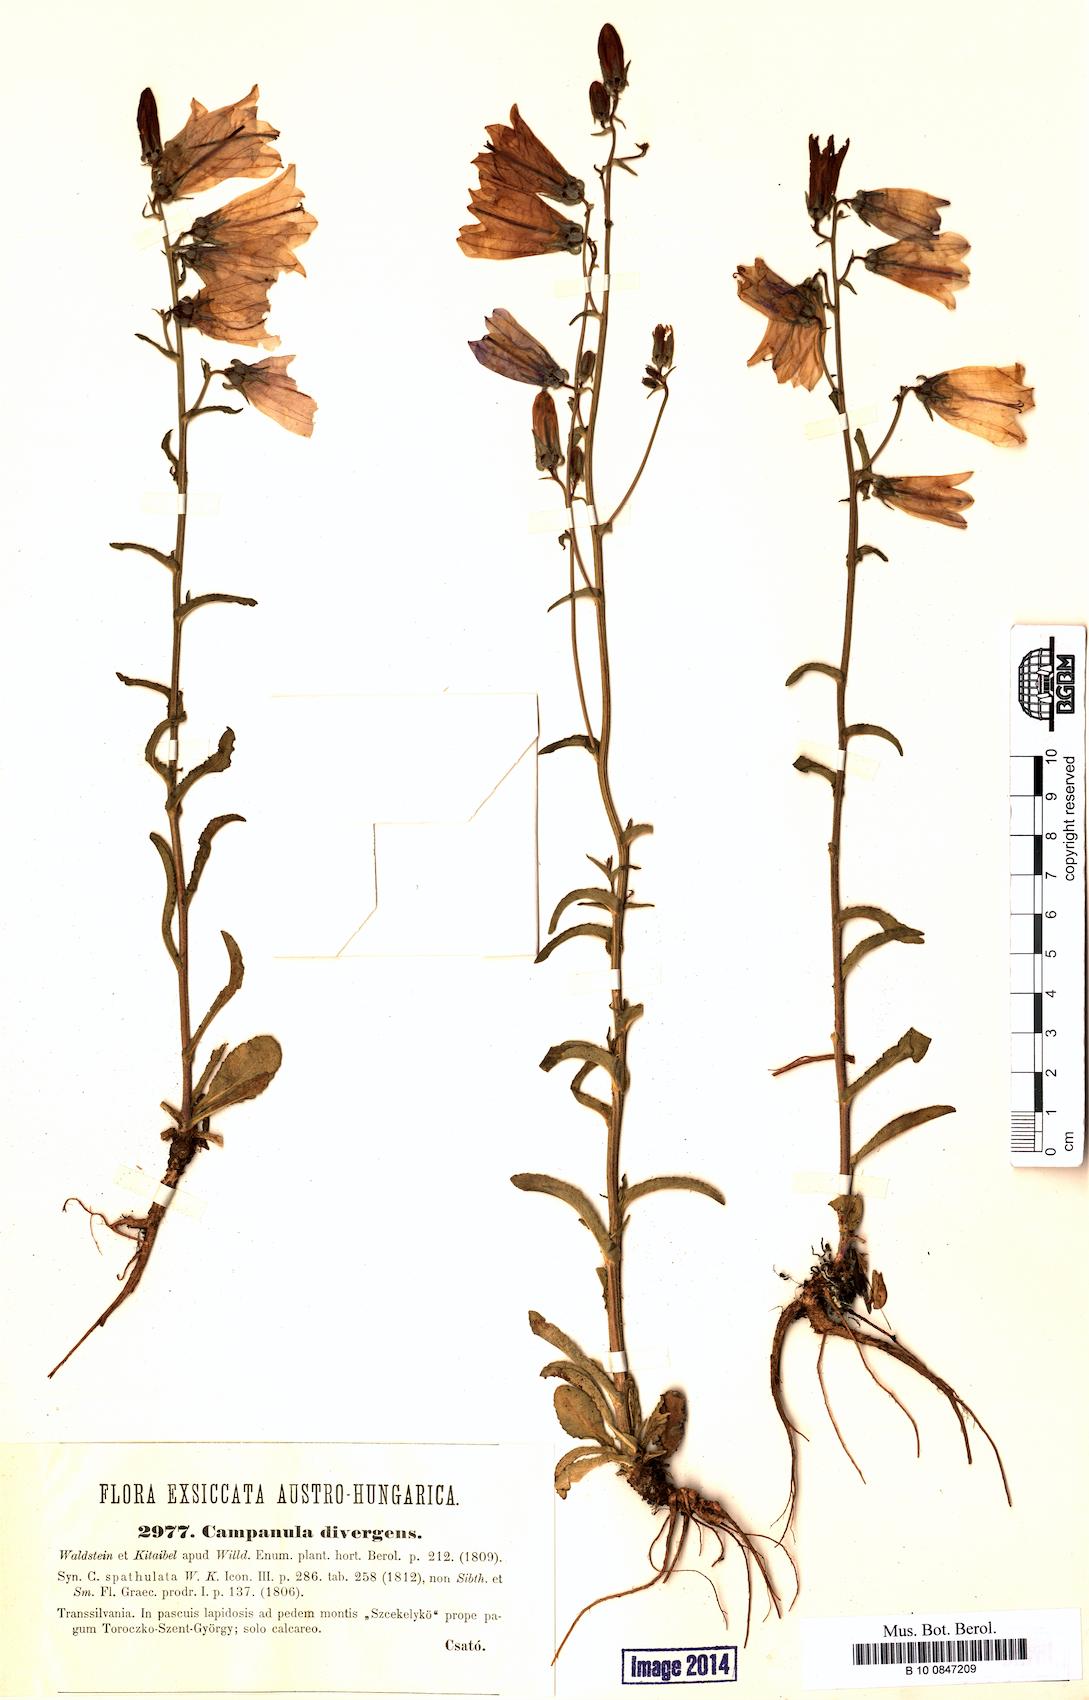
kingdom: Plantae
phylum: Tracheophyta
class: Magnoliopsida
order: Asterales
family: Campanulaceae
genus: Campanula
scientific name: Campanula sibirica
